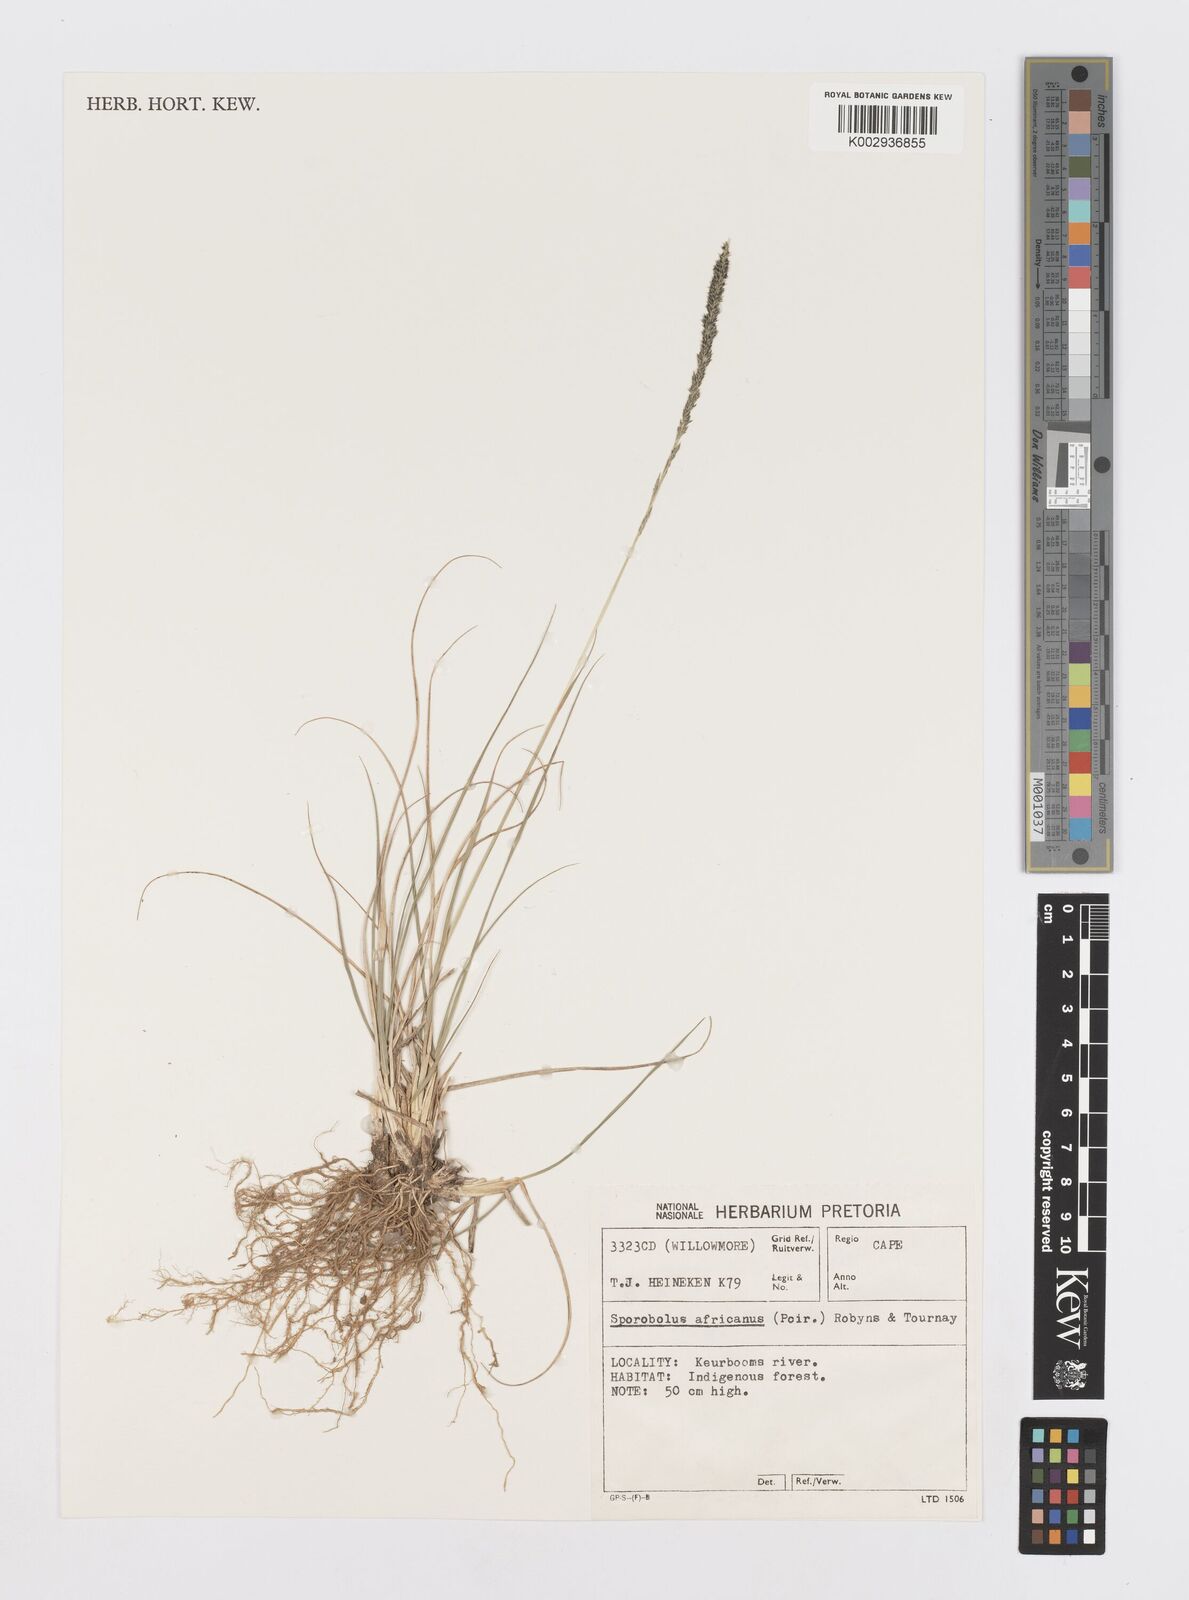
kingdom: Plantae
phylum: Tracheophyta
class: Liliopsida
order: Poales
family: Poaceae
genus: Sporobolus
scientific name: Sporobolus africanus
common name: African dropseed
